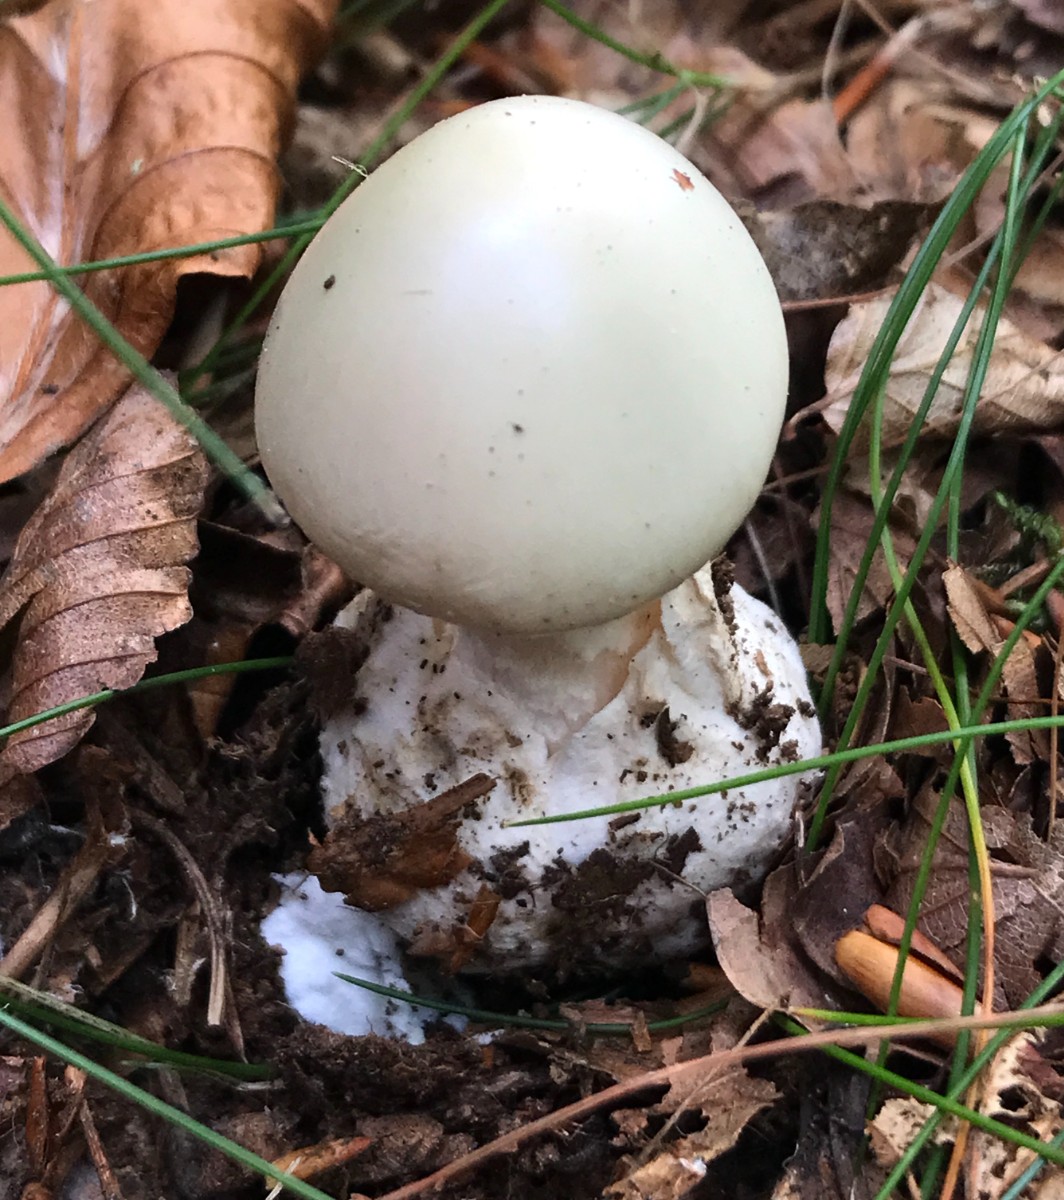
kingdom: Fungi
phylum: Basidiomycota
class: Agaricomycetes
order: Agaricales
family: Amanitaceae
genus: Amanita
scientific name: Amanita virosa
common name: snehvid fluesvamp
